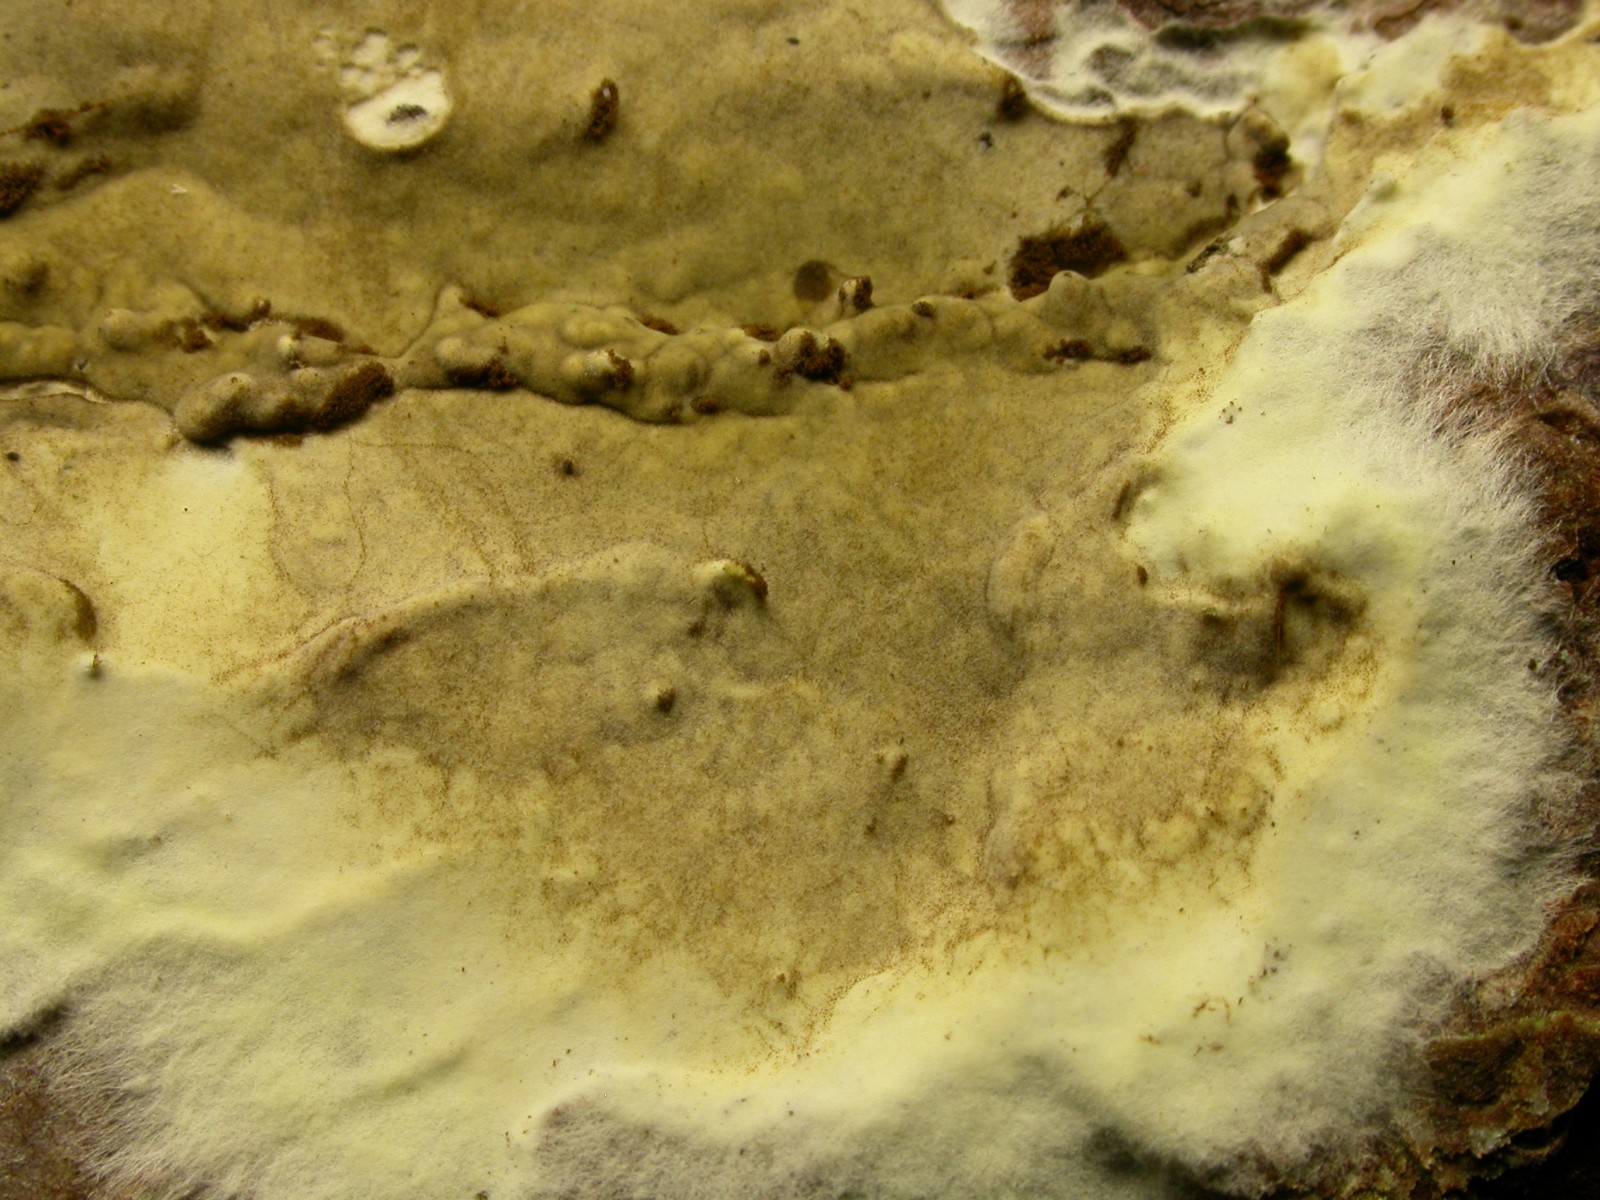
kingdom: Fungi
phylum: Basidiomycota
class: Agaricomycetes
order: Boletales
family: Coniophoraceae
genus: Coniophora
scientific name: Coniophora puteana
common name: gul tømmersvamp
